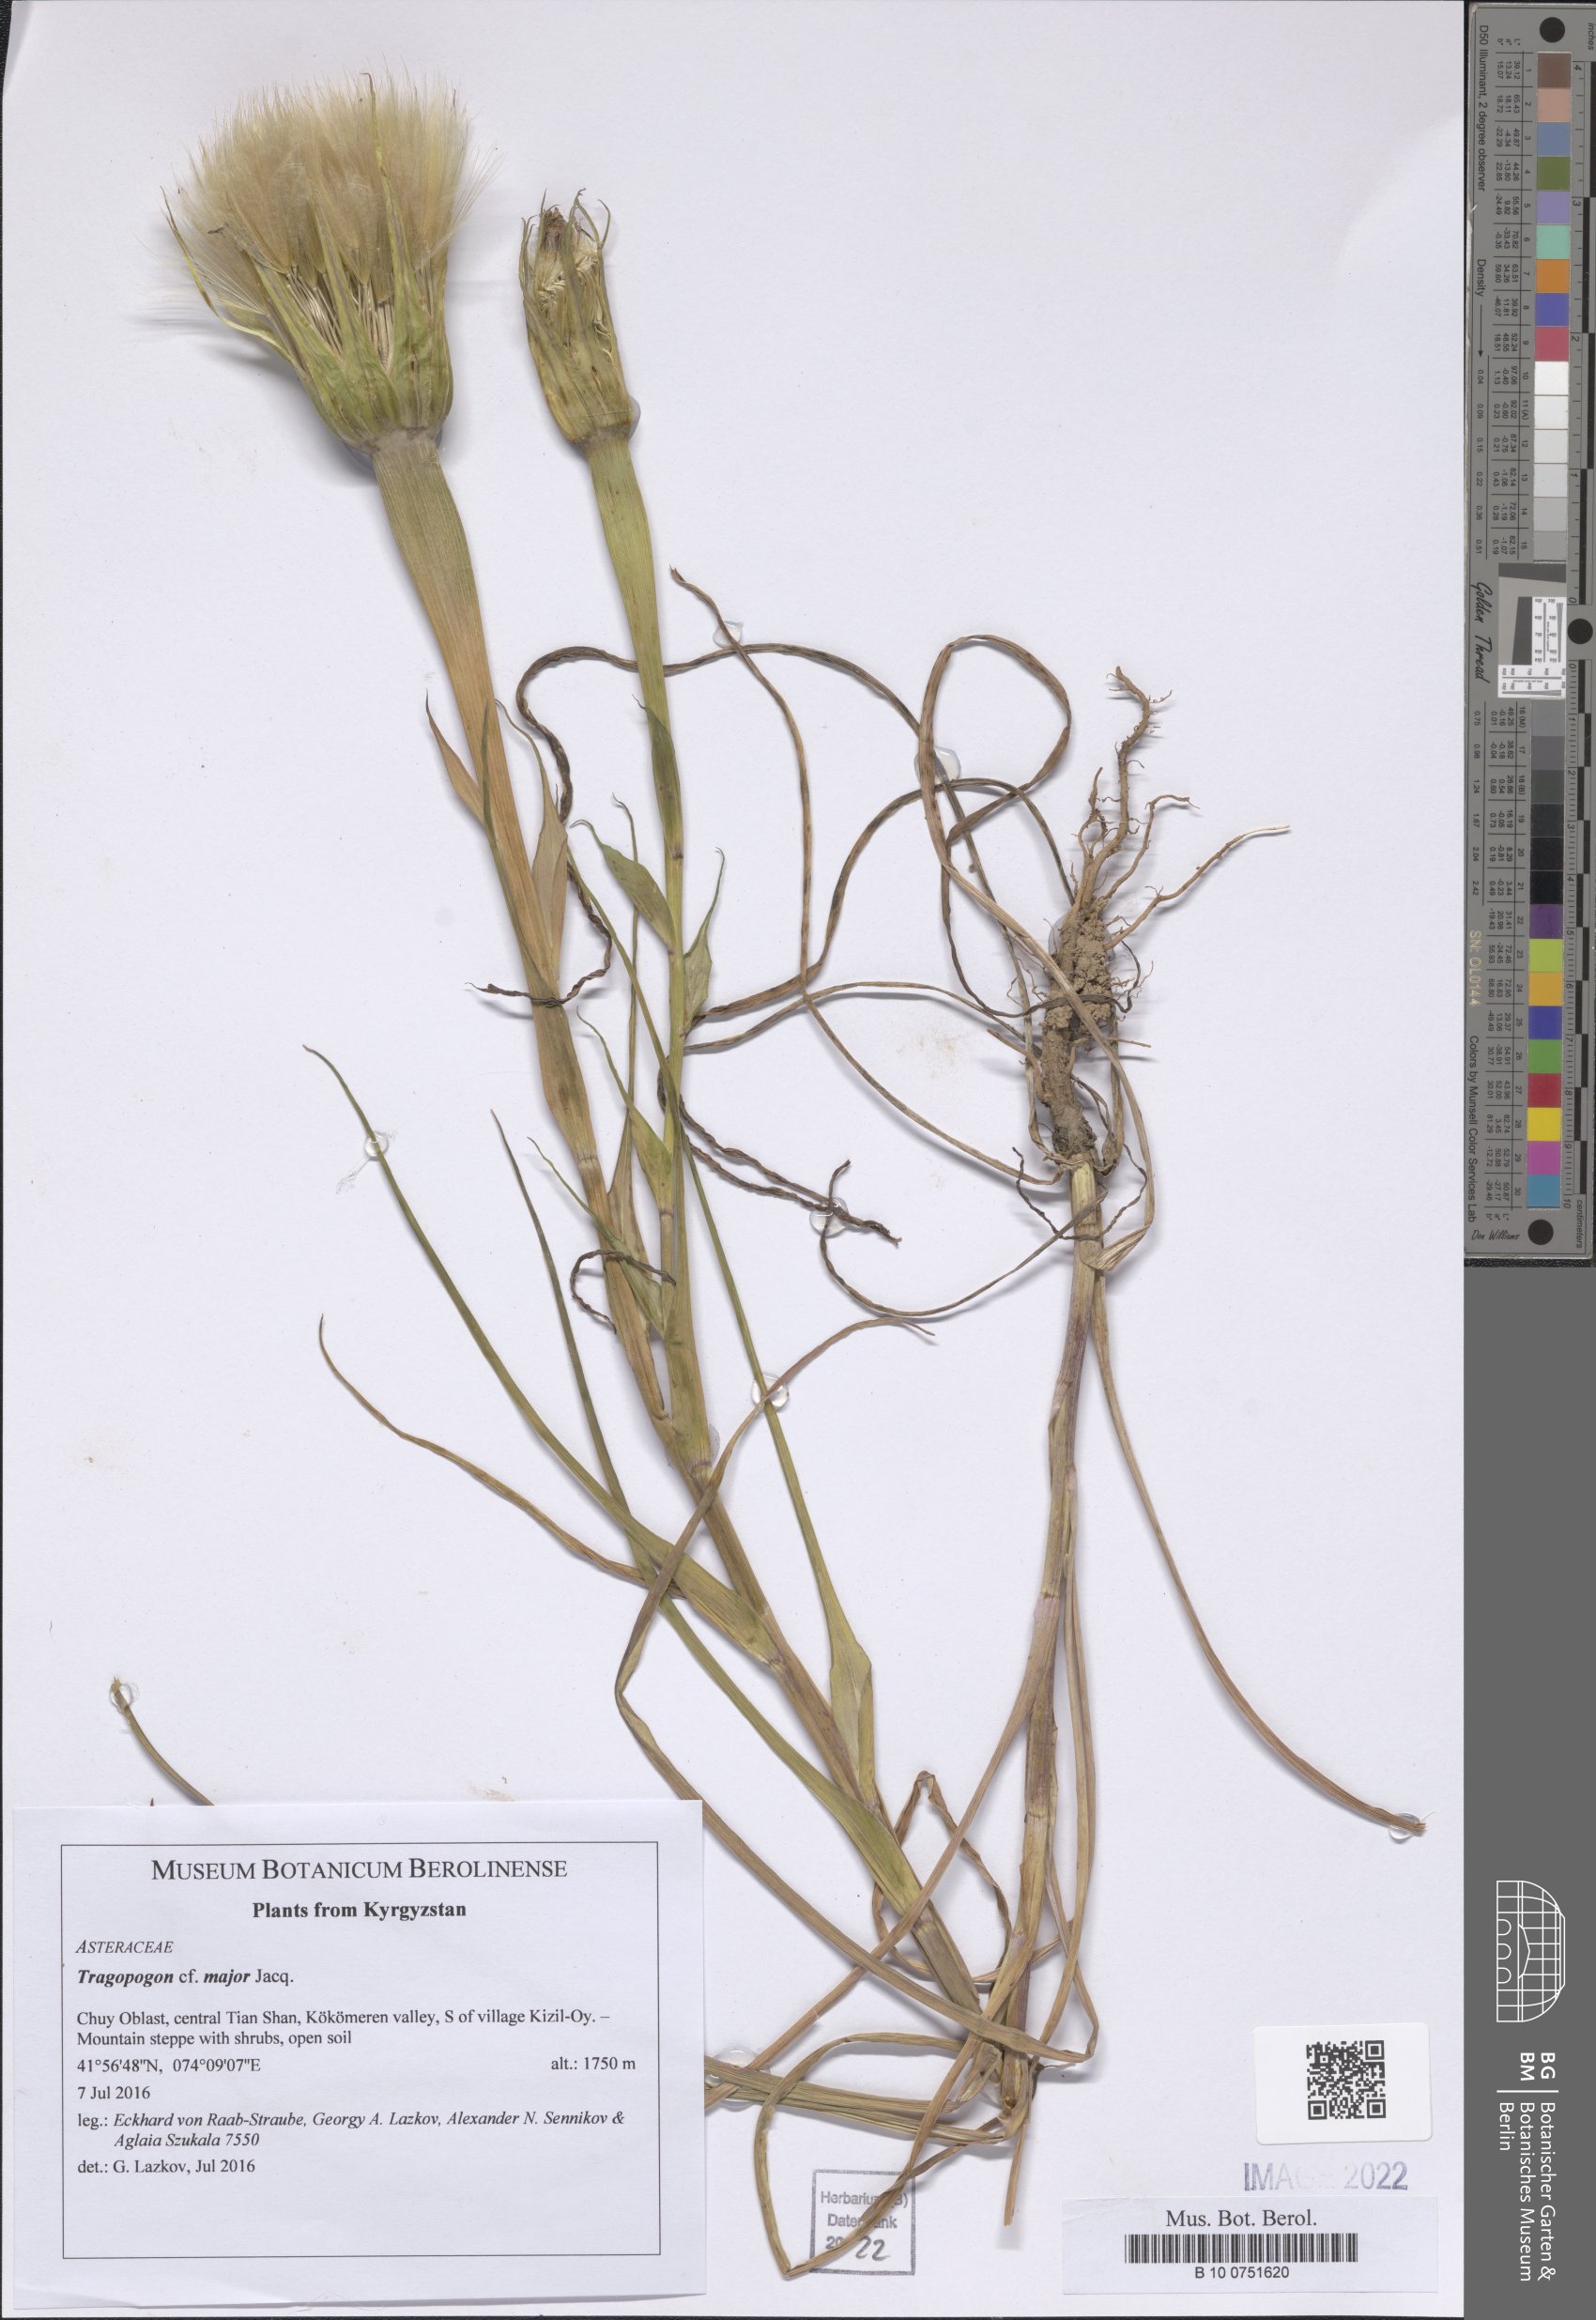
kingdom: Plantae
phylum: Tracheophyta
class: Magnoliopsida
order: Asterales
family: Asteraceae
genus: Tragopogon
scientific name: Tragopogon dubius
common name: Yellow salsify
